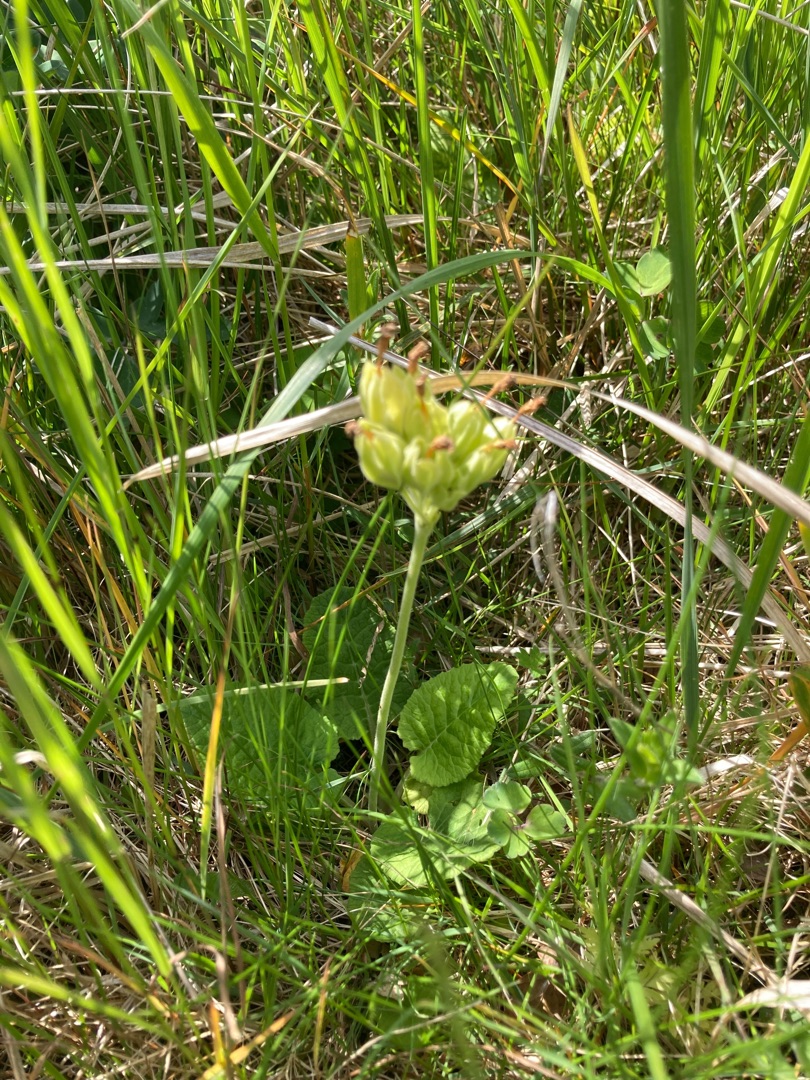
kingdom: Plantae
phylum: Tracheophyta
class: Magnoliopsida
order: Ericales
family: Primulaceae
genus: Primula
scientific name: Primula veris
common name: Hulkravet kodriver
